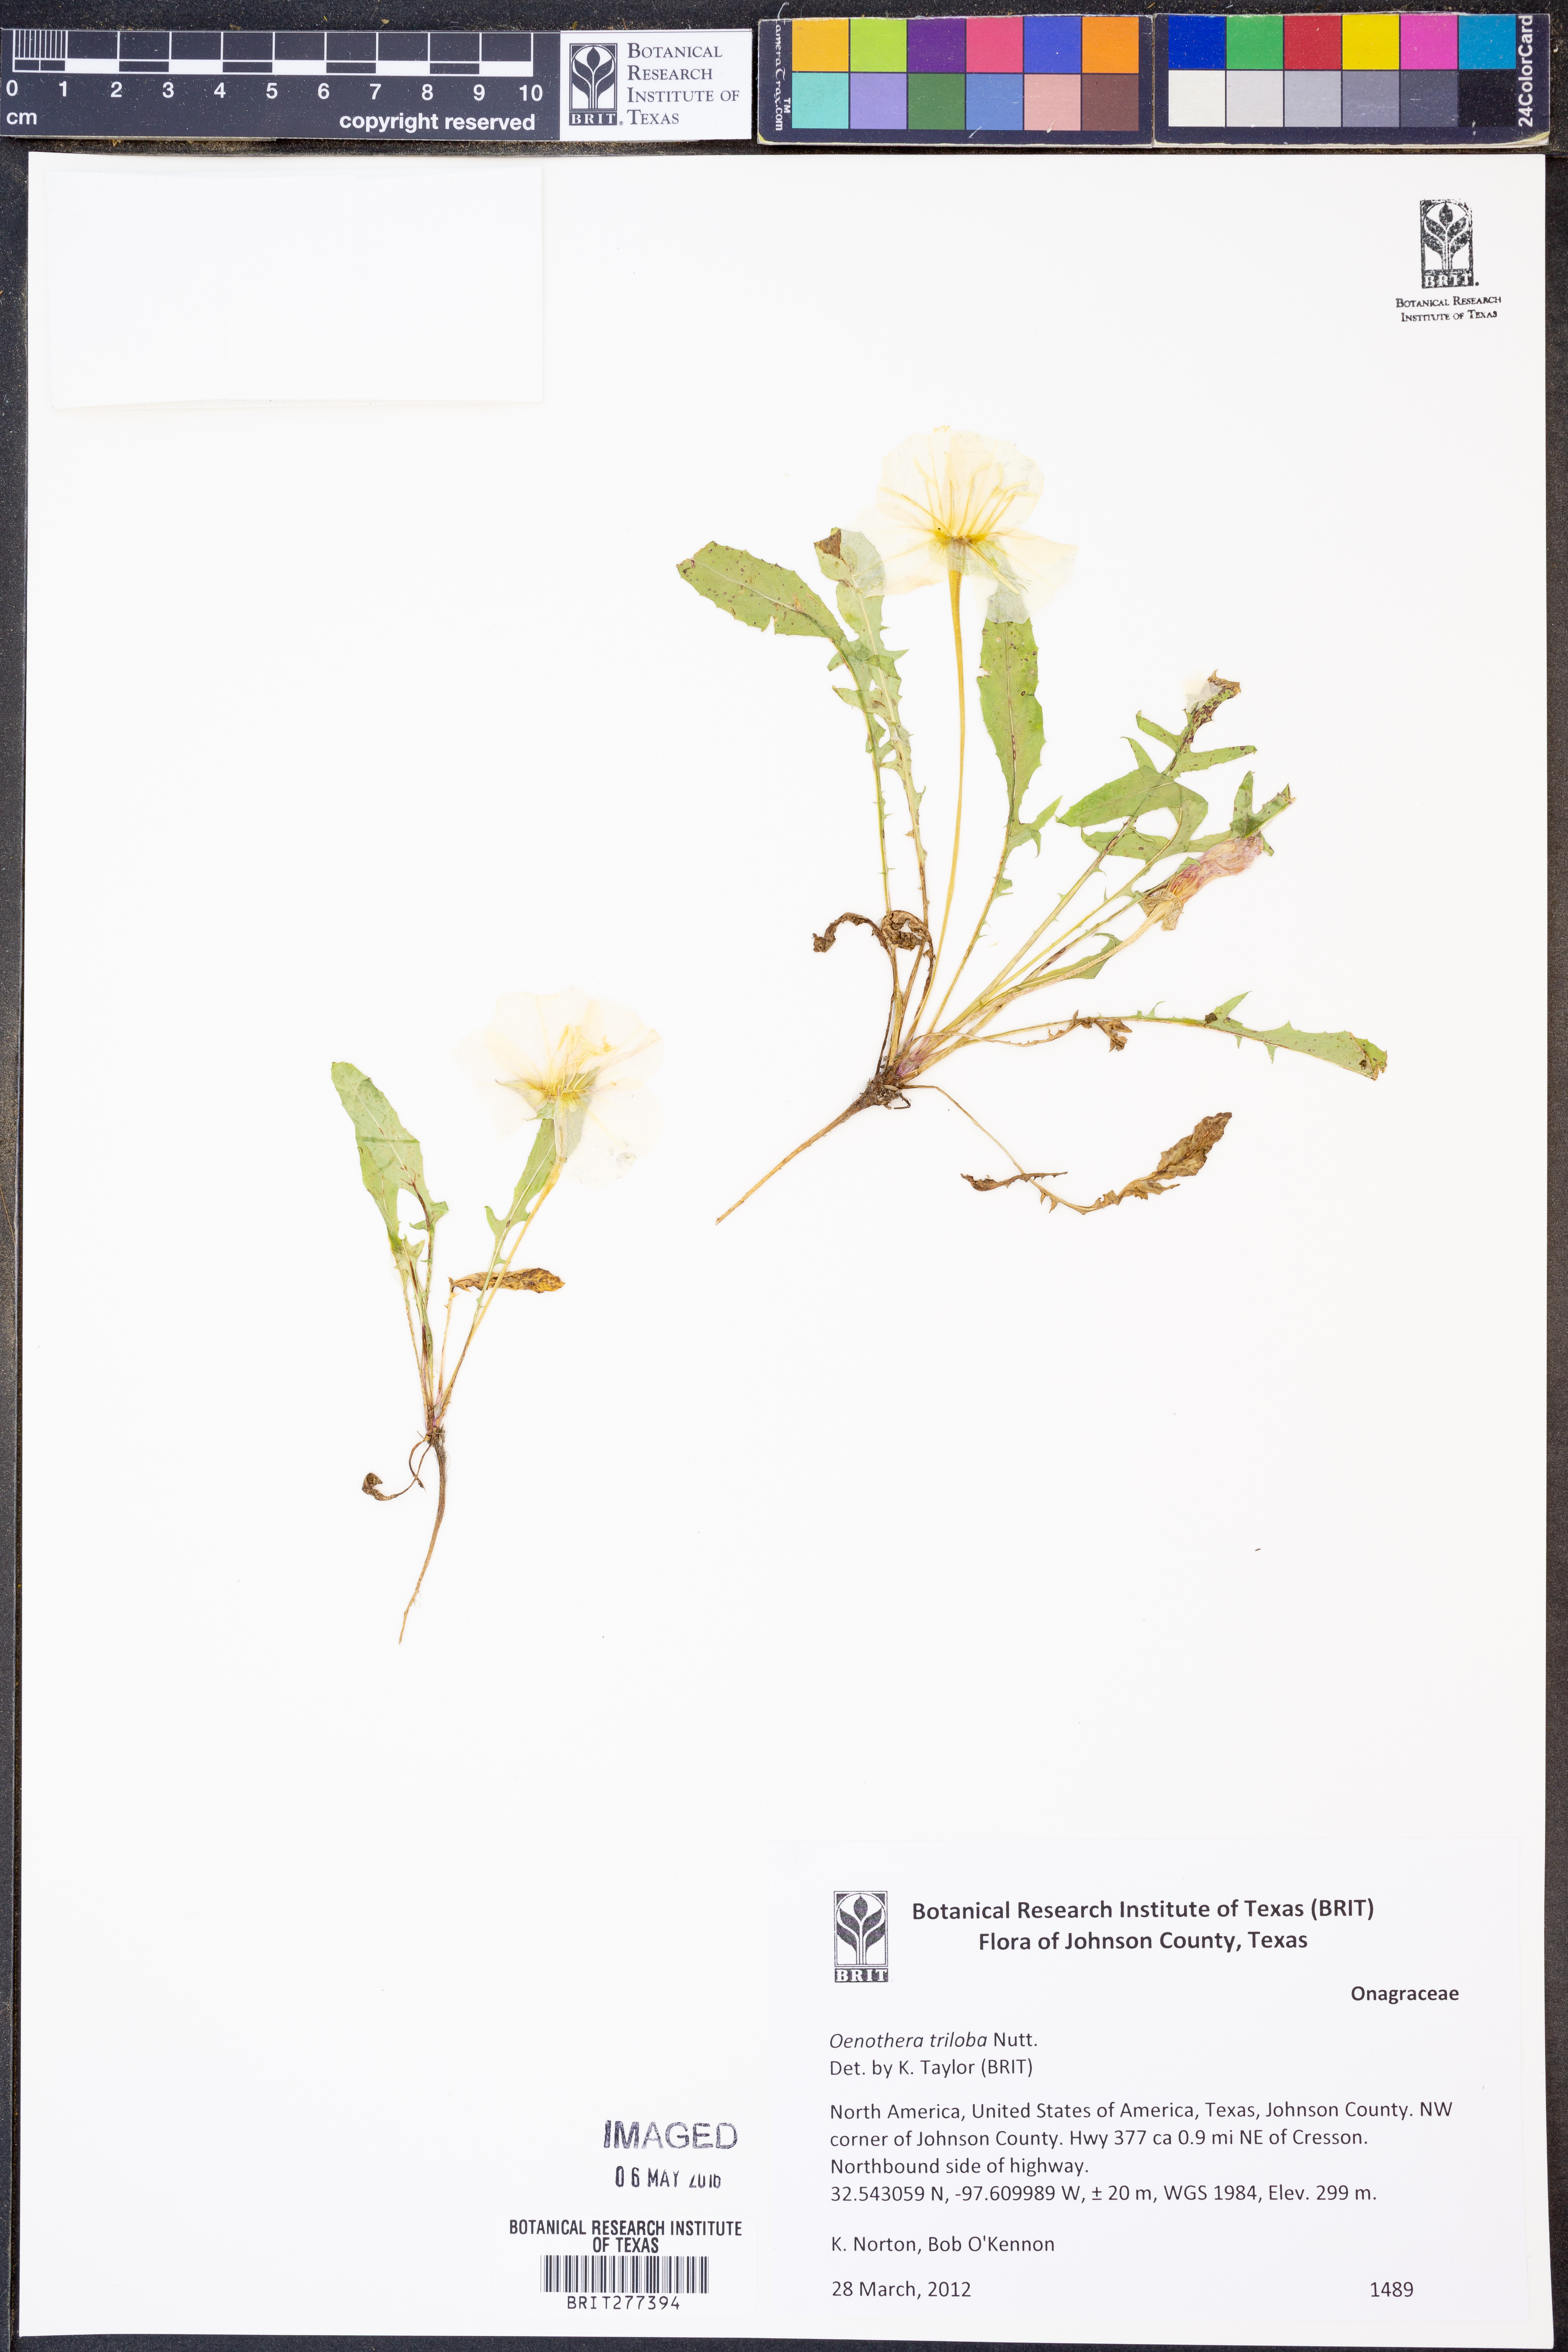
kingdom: Plantae
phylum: Tracheophyta
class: Magnoliopsida
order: Myrtales
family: Onagraceae
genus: Oenothera
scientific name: Oenothera triloba
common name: Sessile evening-primrose
